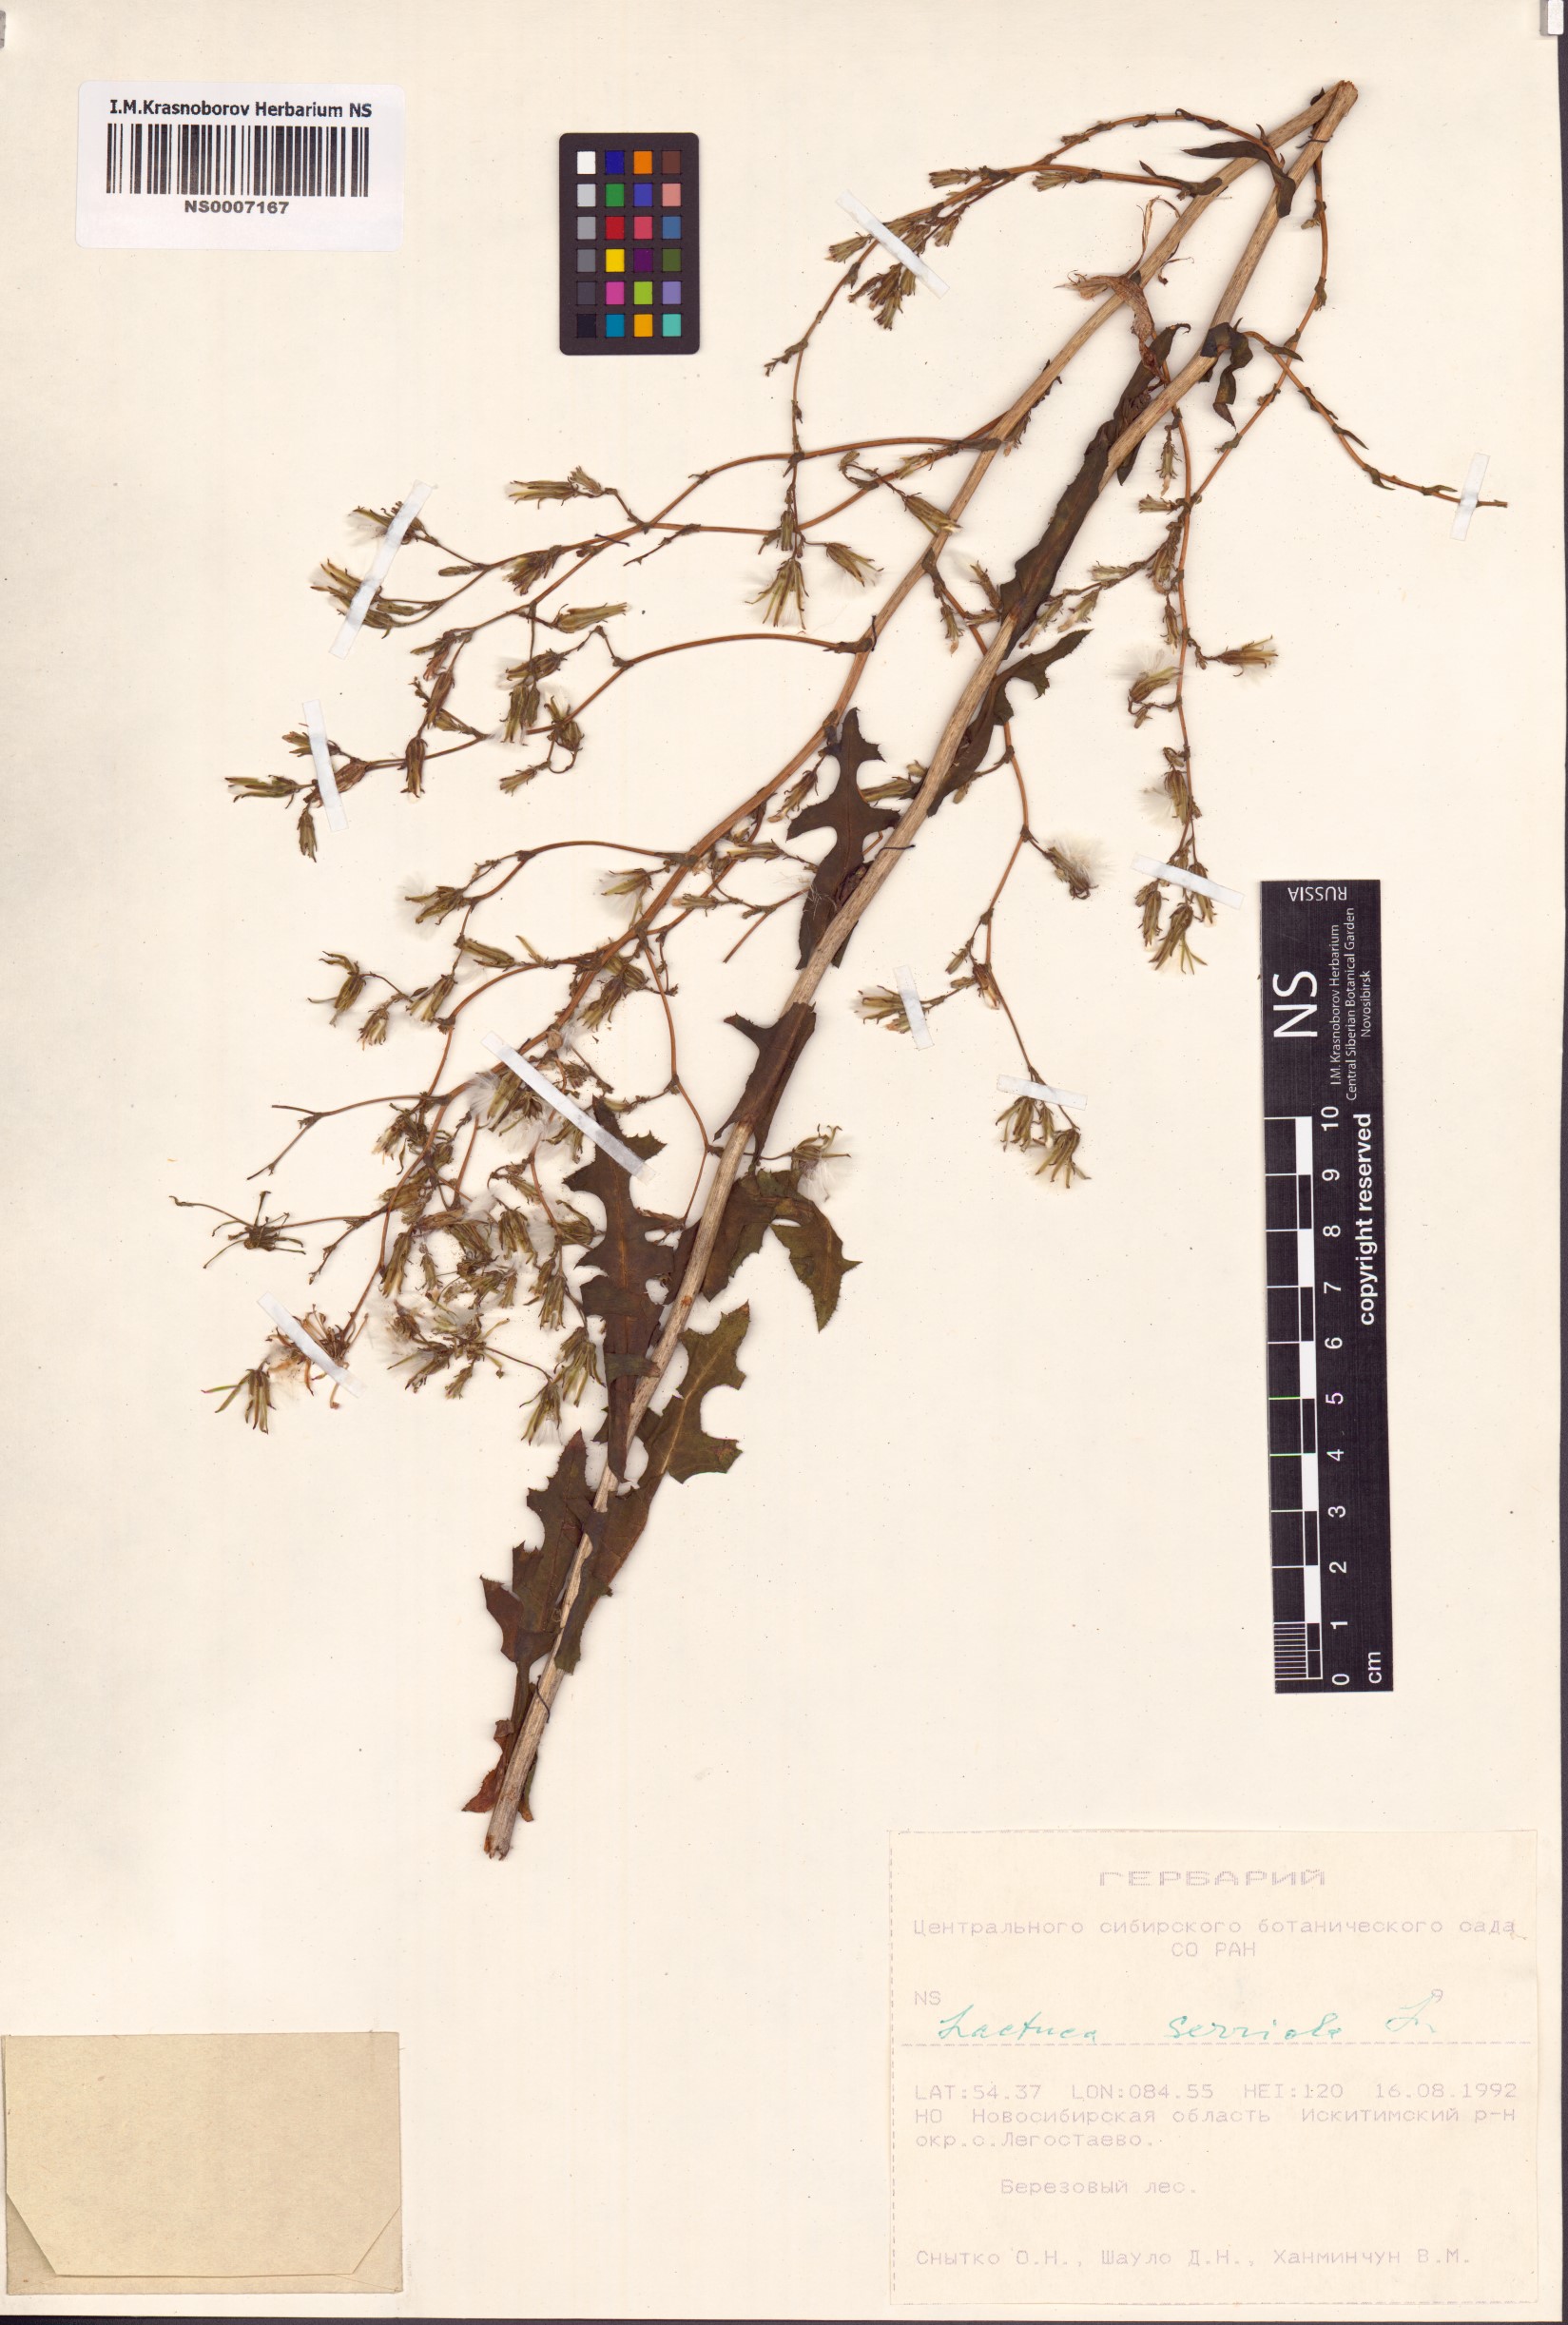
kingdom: Plantae
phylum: Tracheophyta
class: Magnoliopsida
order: Asterales
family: Asteraceae
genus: Lactuca
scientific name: Lactuca serriola
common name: Prickly lettuce
